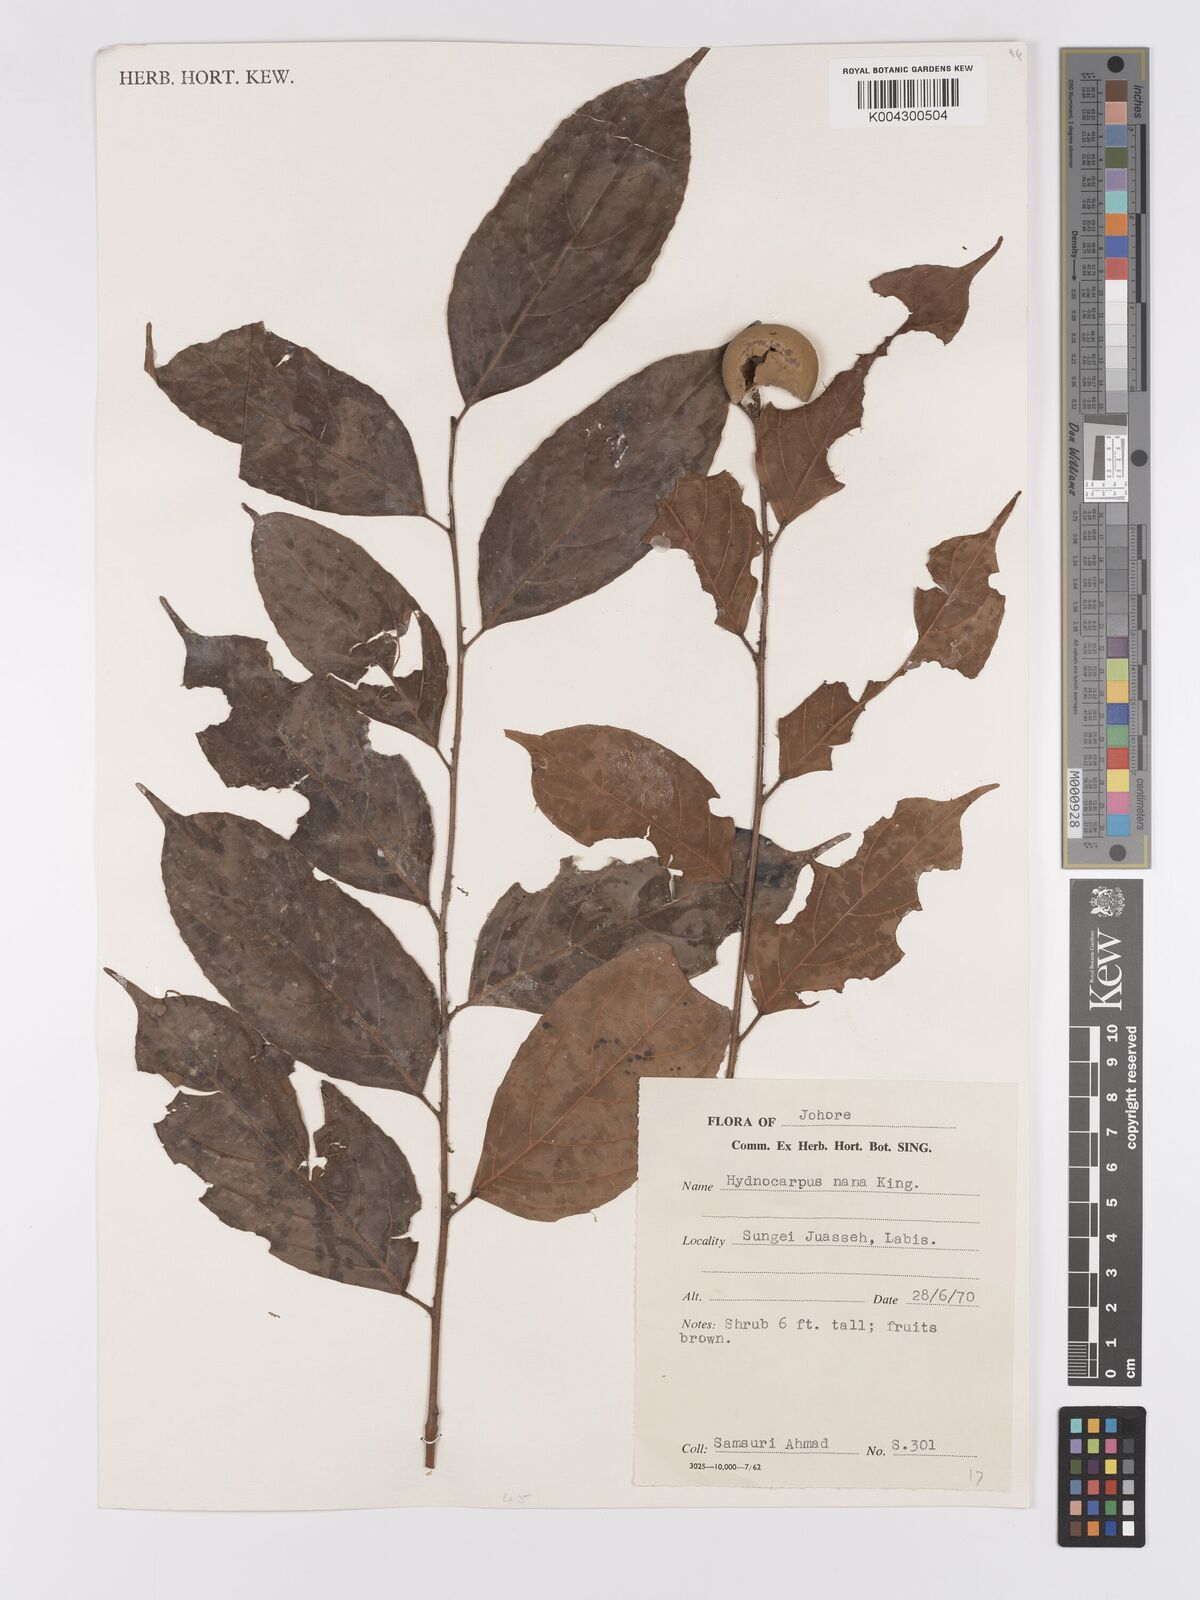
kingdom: Plantae
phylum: Tracheophyta
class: Magnoliopsida
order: Malpighiales
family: Achariaceae
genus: Hydnocarpus
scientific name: Hydnocarpus nanus
